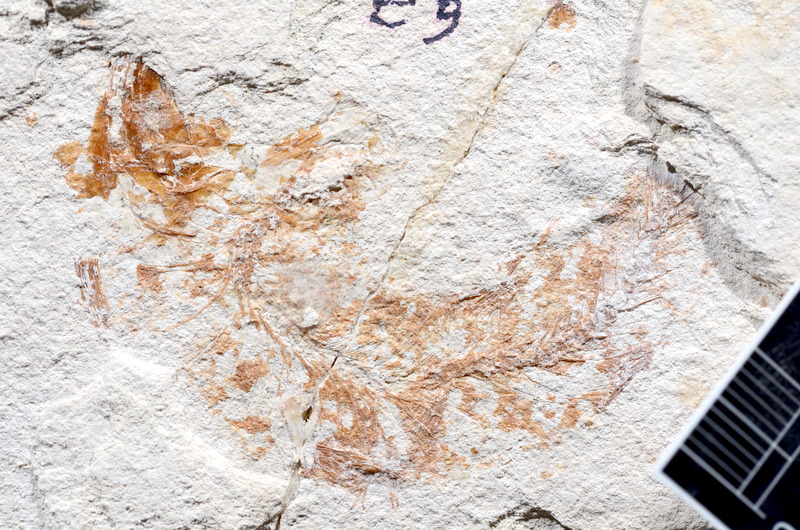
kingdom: Animalia
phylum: Chordata
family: Ascalaboidae
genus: Tharsis
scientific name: Tharsis dubius
